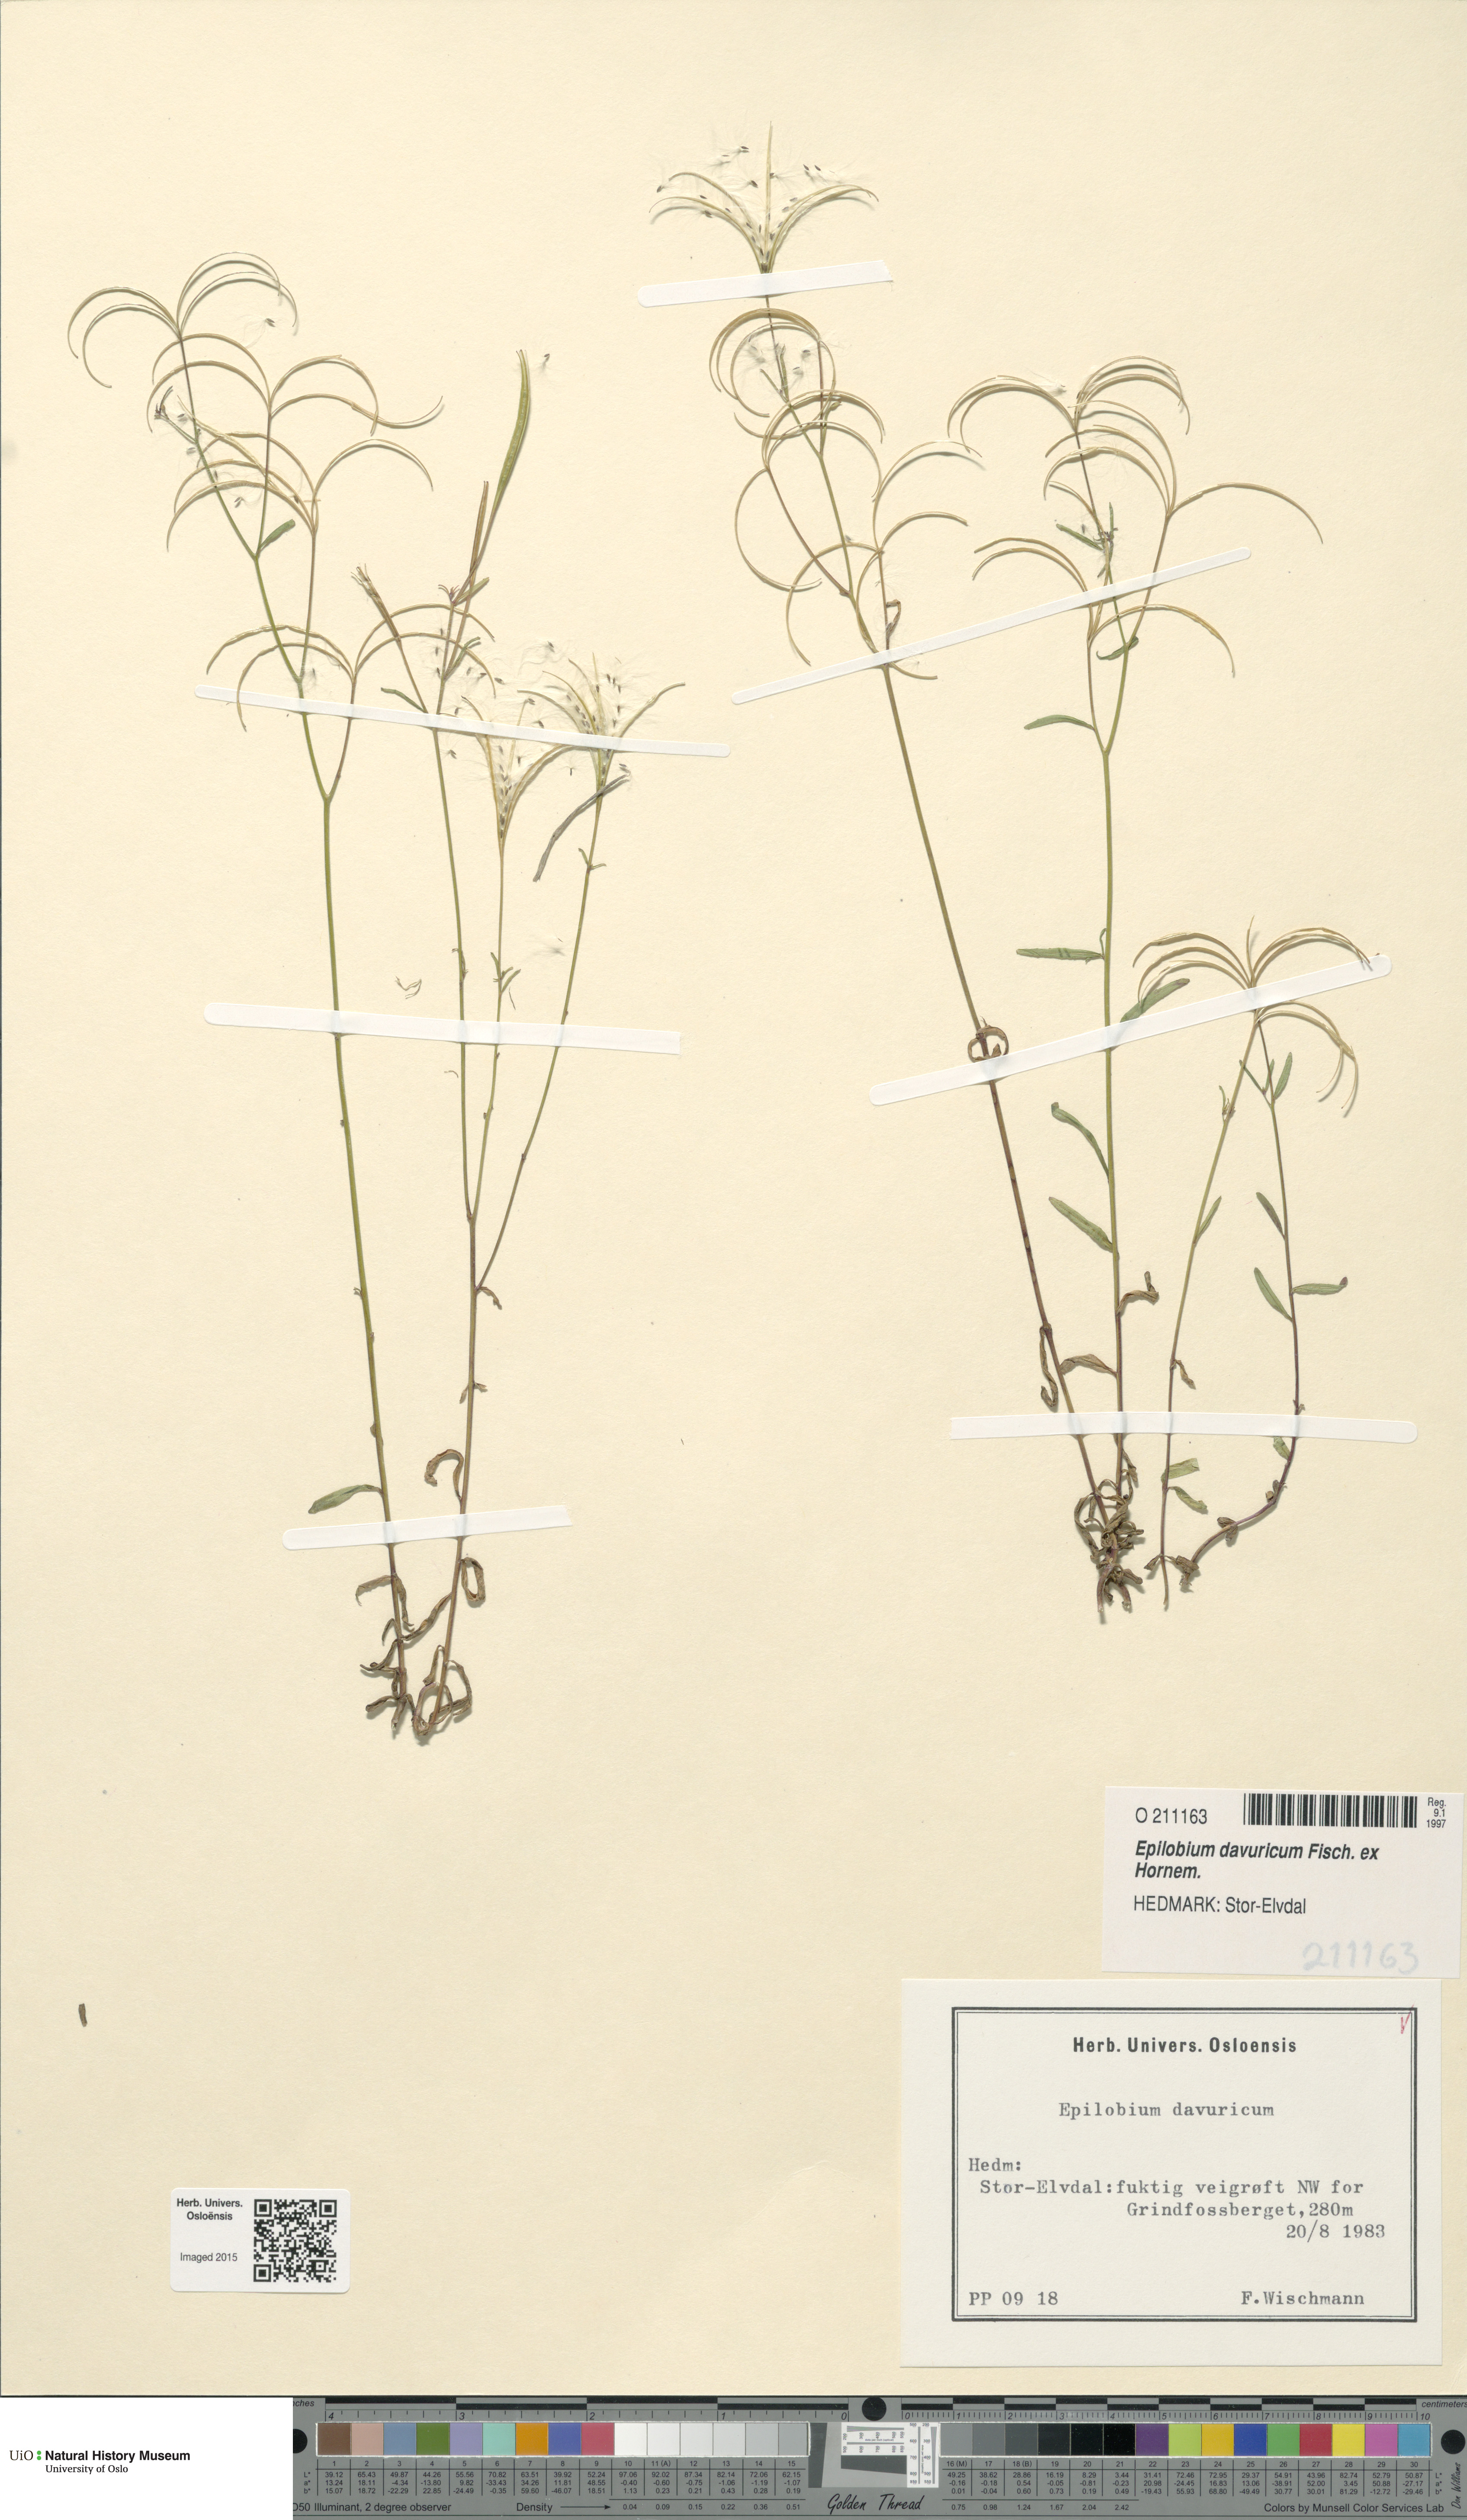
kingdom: Plantae
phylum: Tracheophyta
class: Magnoliopsida
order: Myrtales
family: Onagraceae
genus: Epilobium
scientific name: Epilobium davuricum
